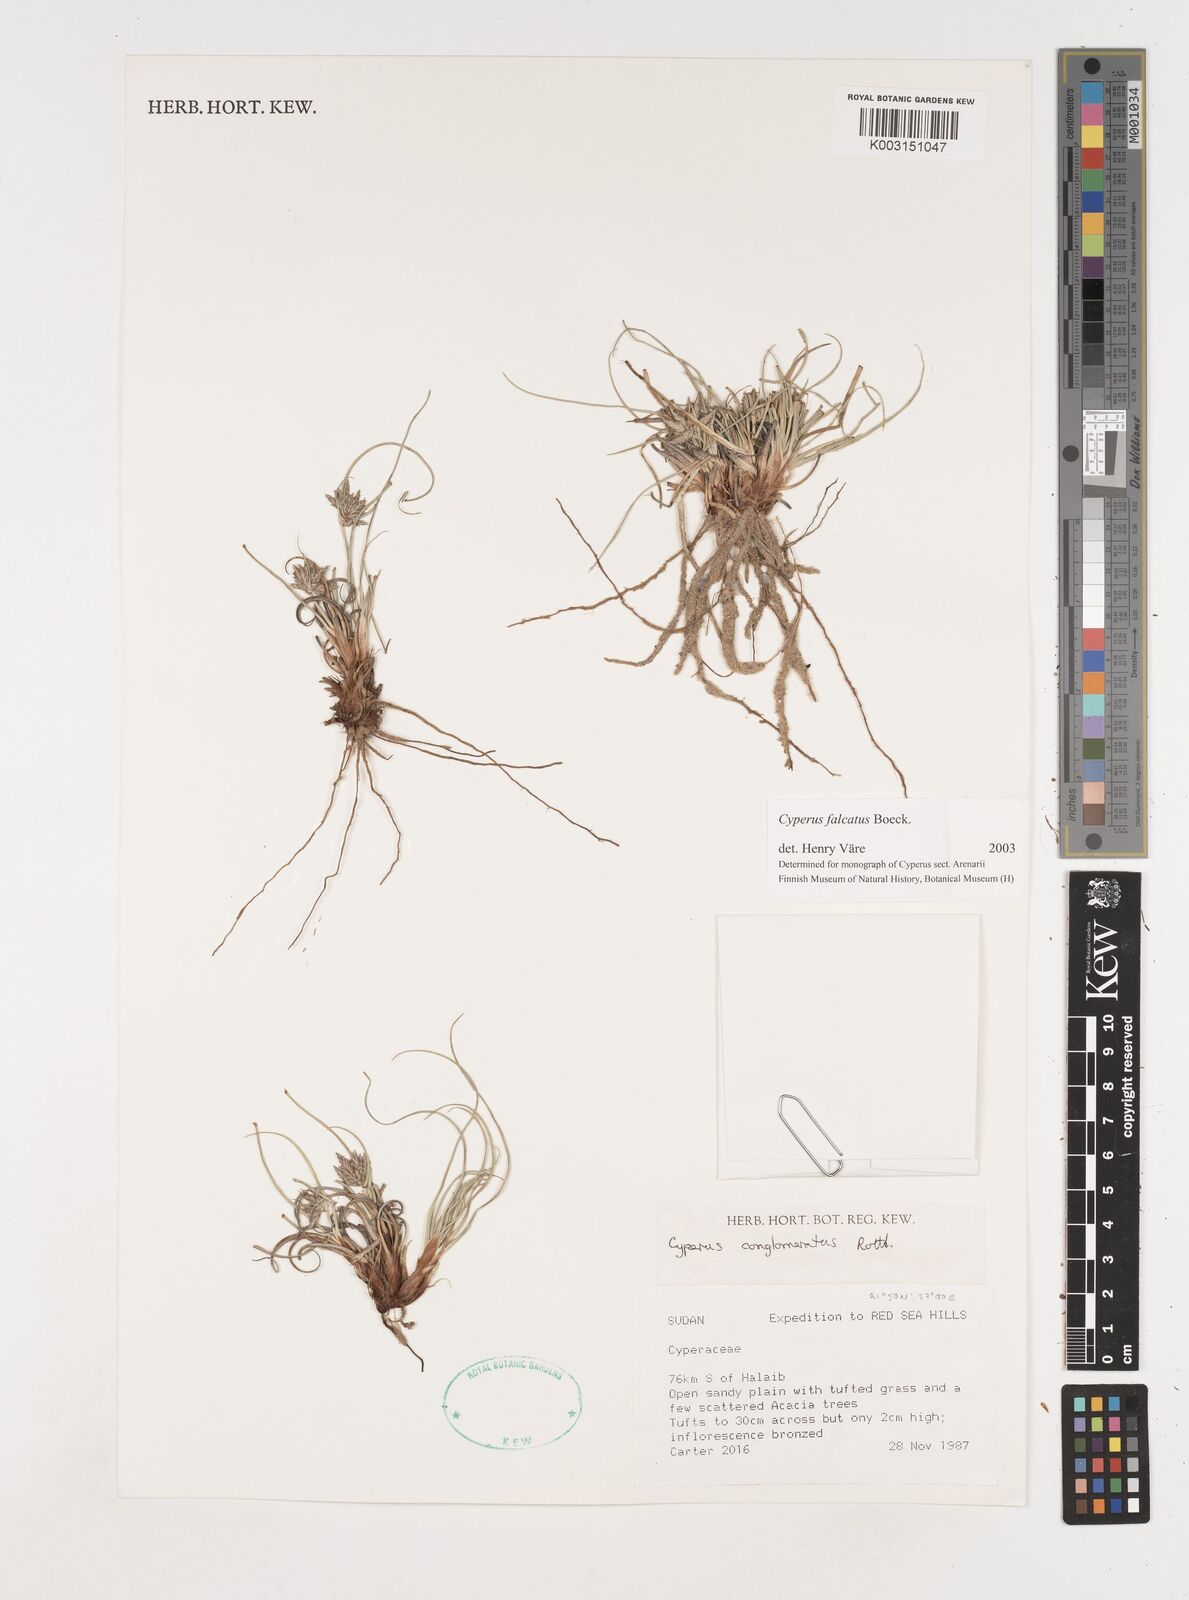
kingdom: Plantae
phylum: Tracheophyta
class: Liliopsida
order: Poales
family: Cyperaceae
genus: Cyperus
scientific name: Cyperus conglomeratus
